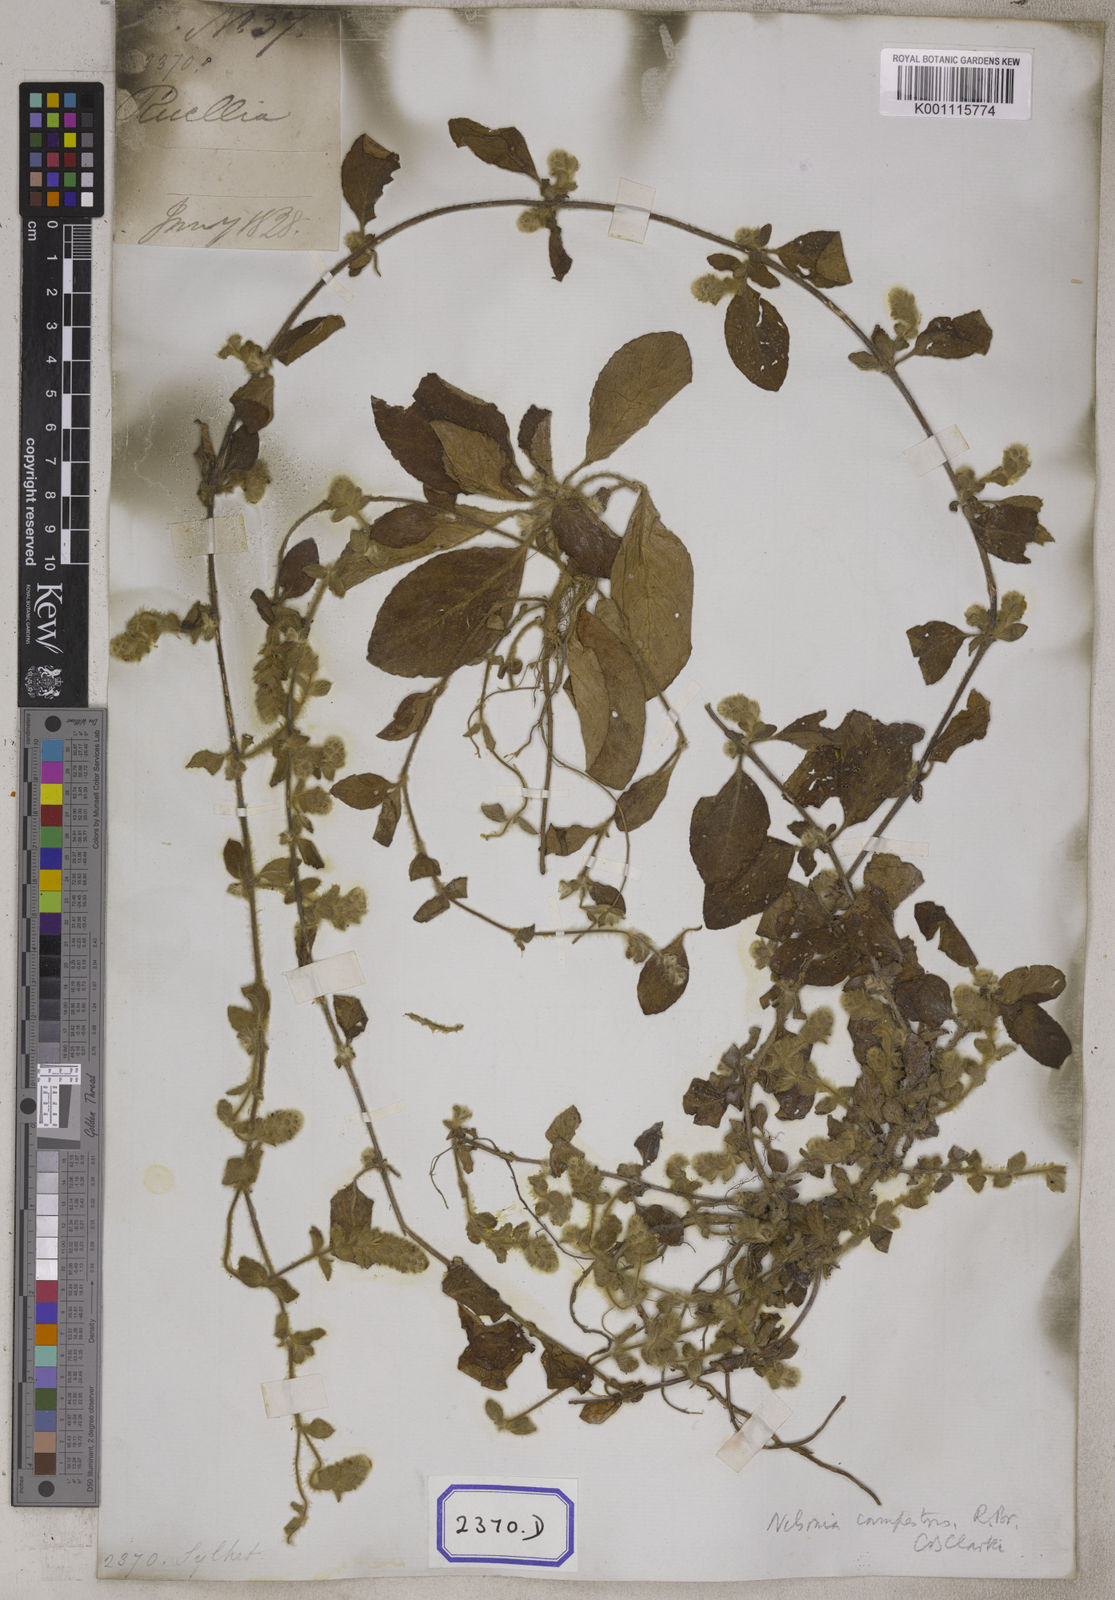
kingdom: Plantae
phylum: Tracheophyta
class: Magnoliopsida
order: Lamiales
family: Acanthaceae
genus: Nelsonia
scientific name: Nelsonia canescens
